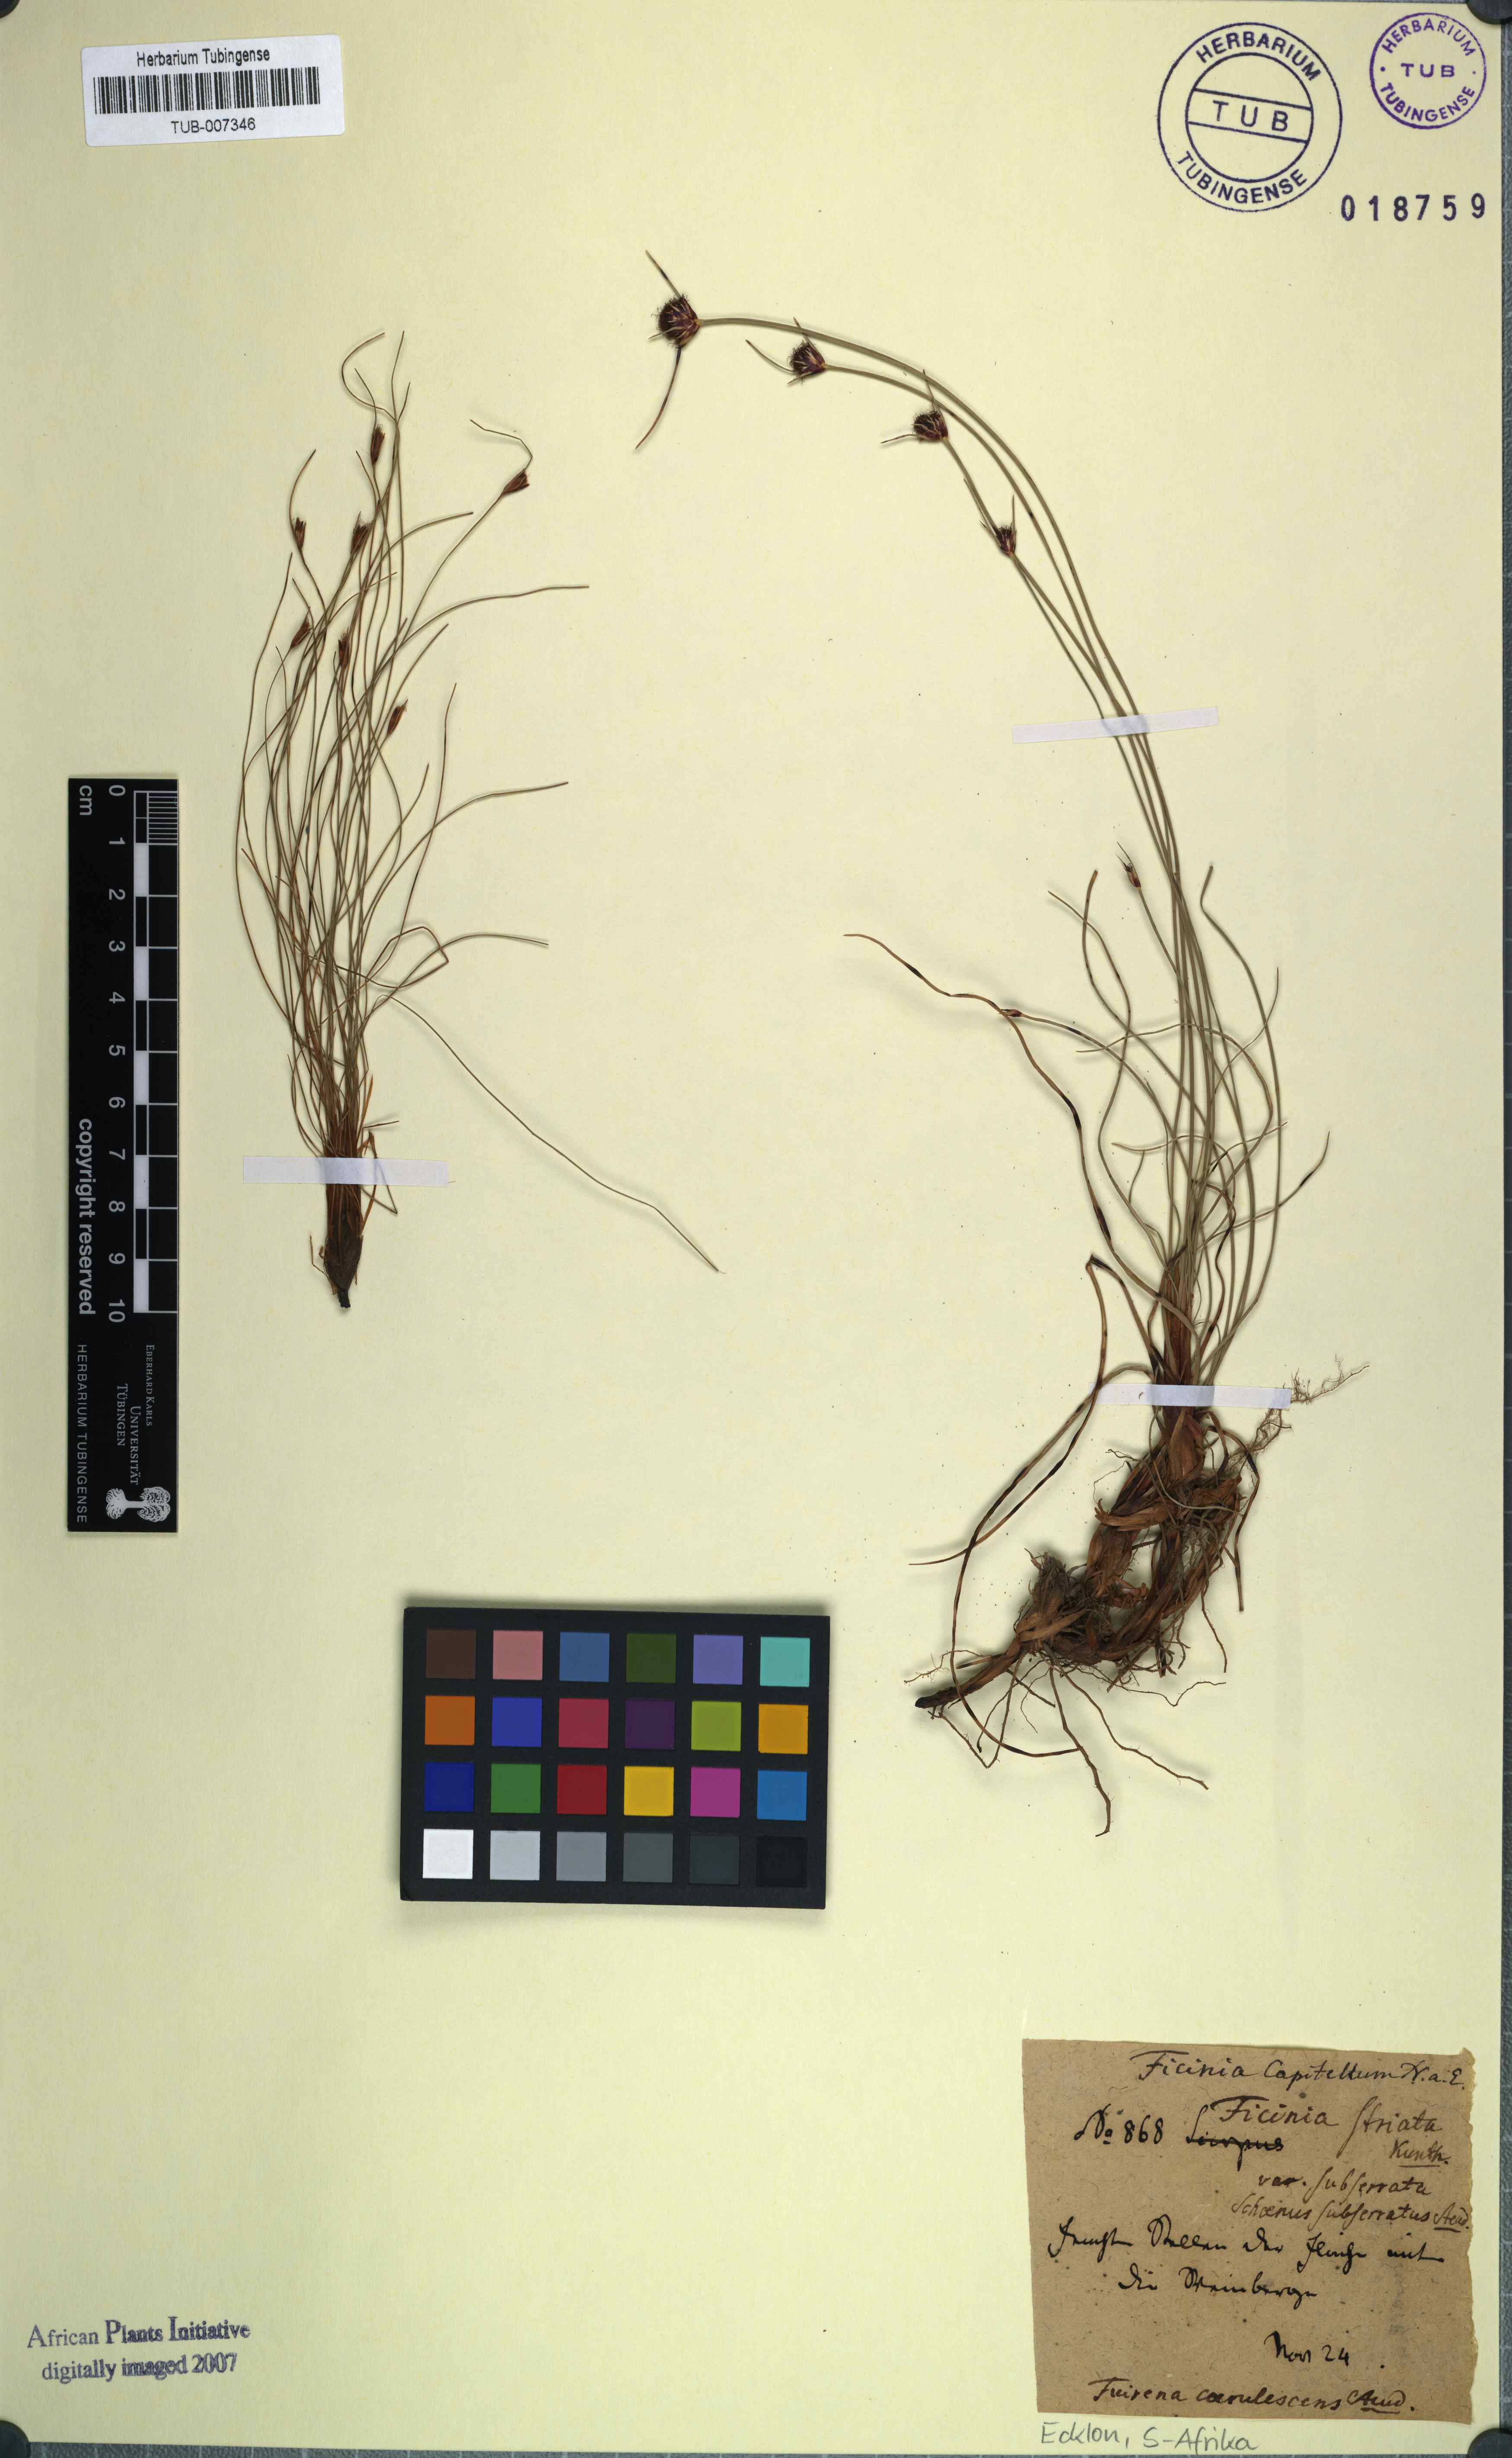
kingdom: Plantae
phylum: Tracheophyta
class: Liliopsida
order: Poales
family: Cyperaceae
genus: Ficinia
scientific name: Ficinia capitella
